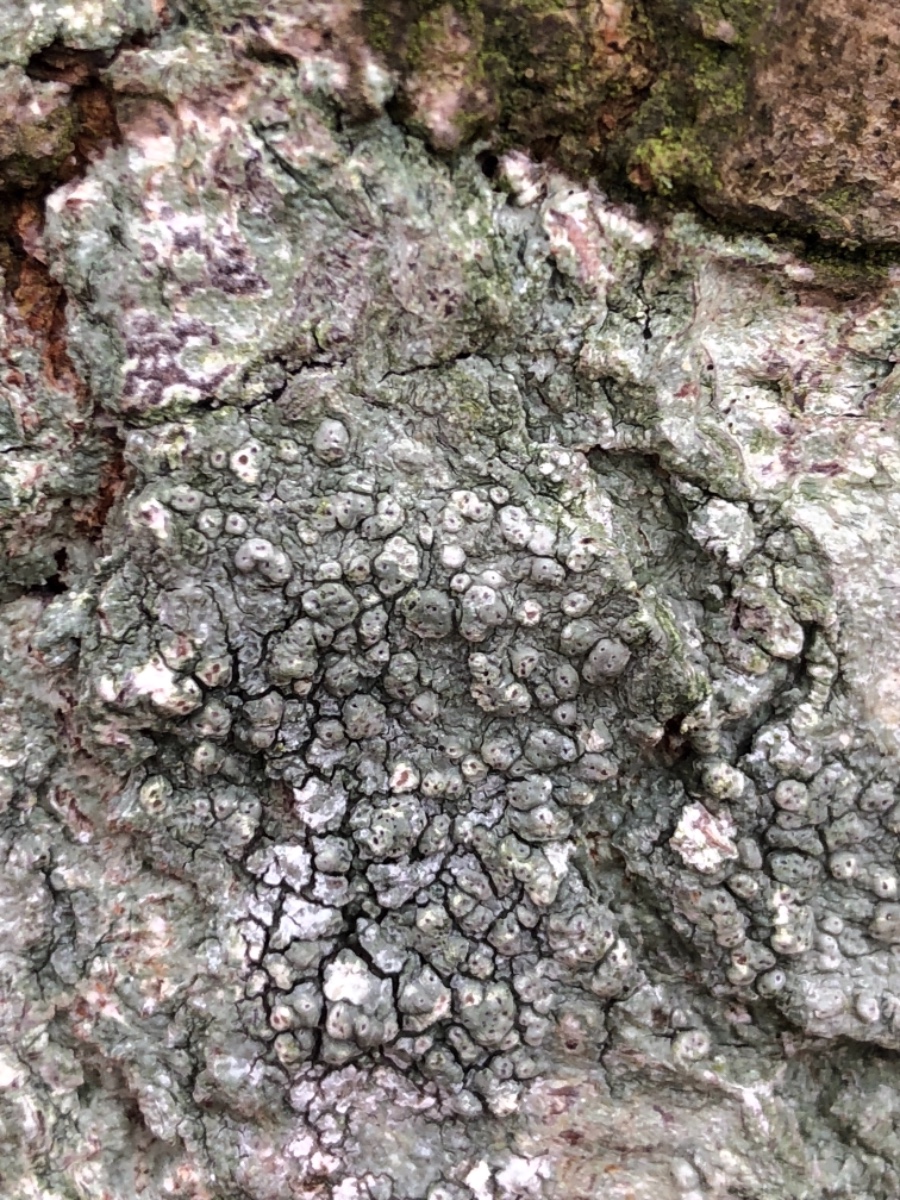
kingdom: Fungi
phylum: Ascomycota
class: Lecanoromycetes
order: Pertusariales
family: Pertusariaceae
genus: Pertusaria
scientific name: Pertusaria pertusa
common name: almindelig prikvortelav
